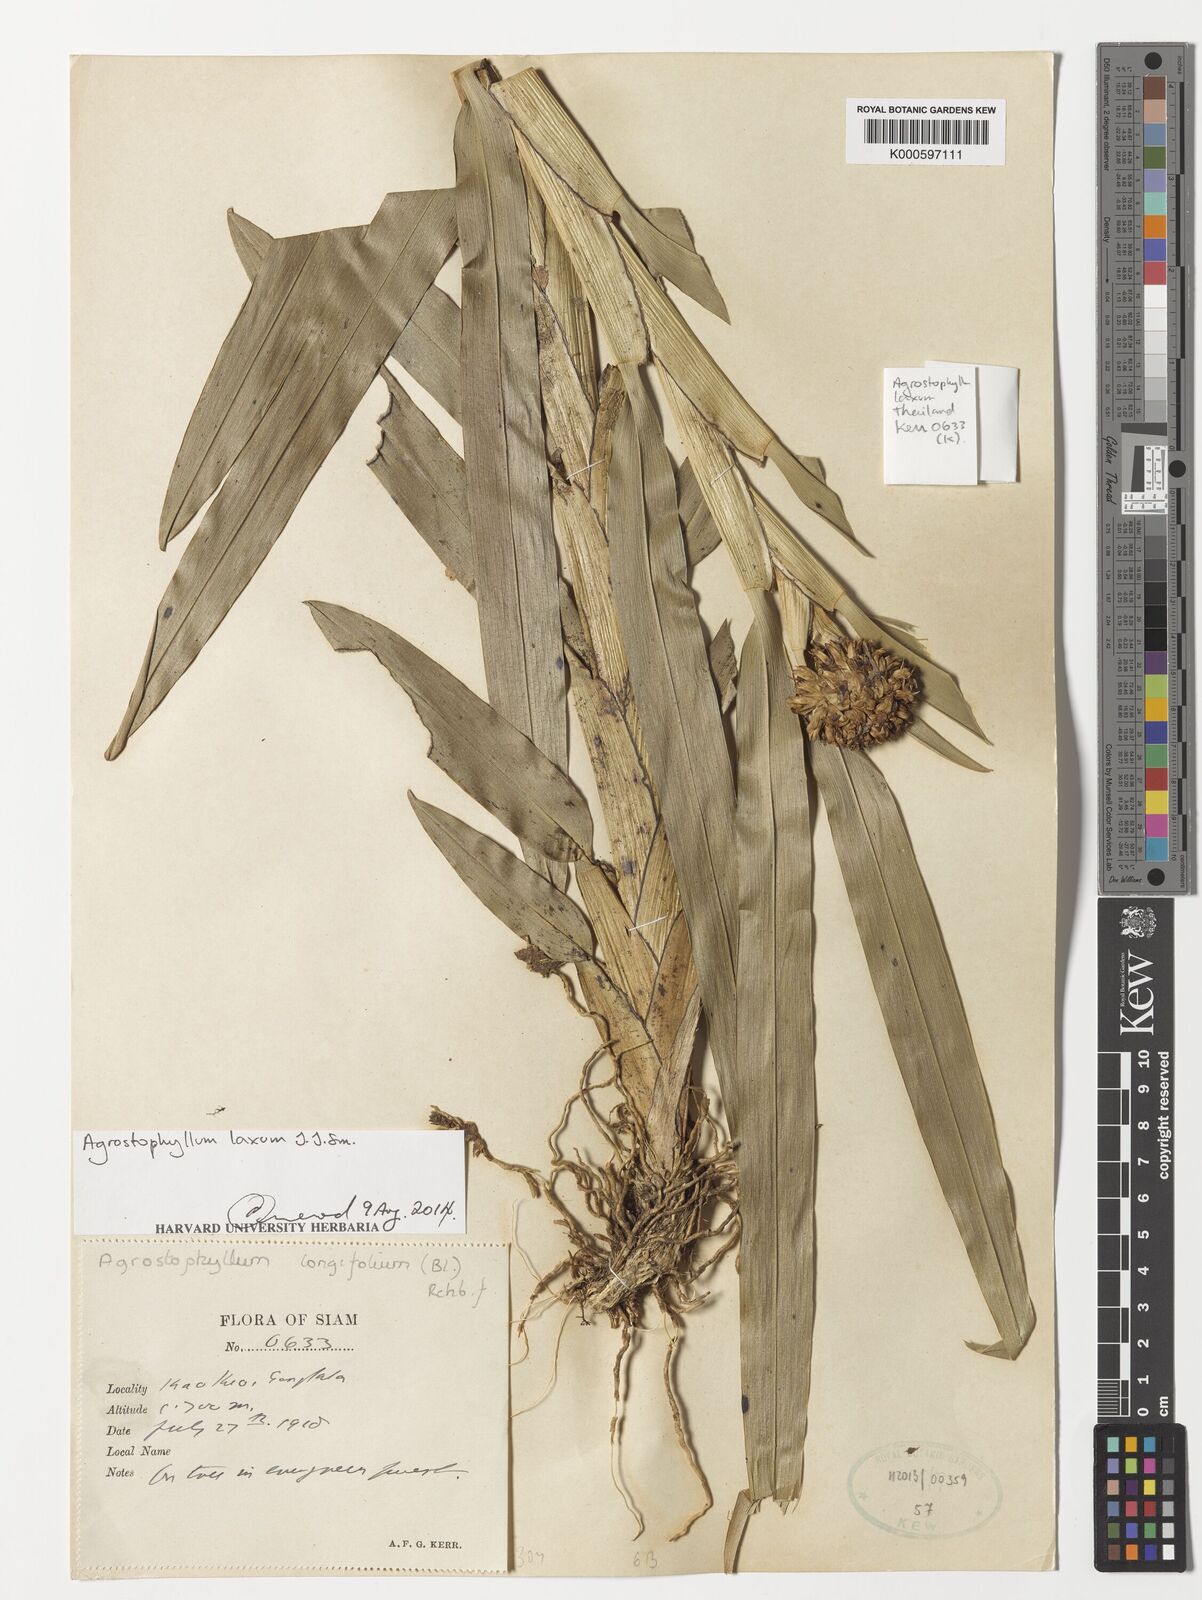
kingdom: Plantae
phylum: Tracheophyta
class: Liliopsida
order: Asparagales
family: Orchidaceae
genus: Agrostophyllum
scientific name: Agrostophyllum laxum
